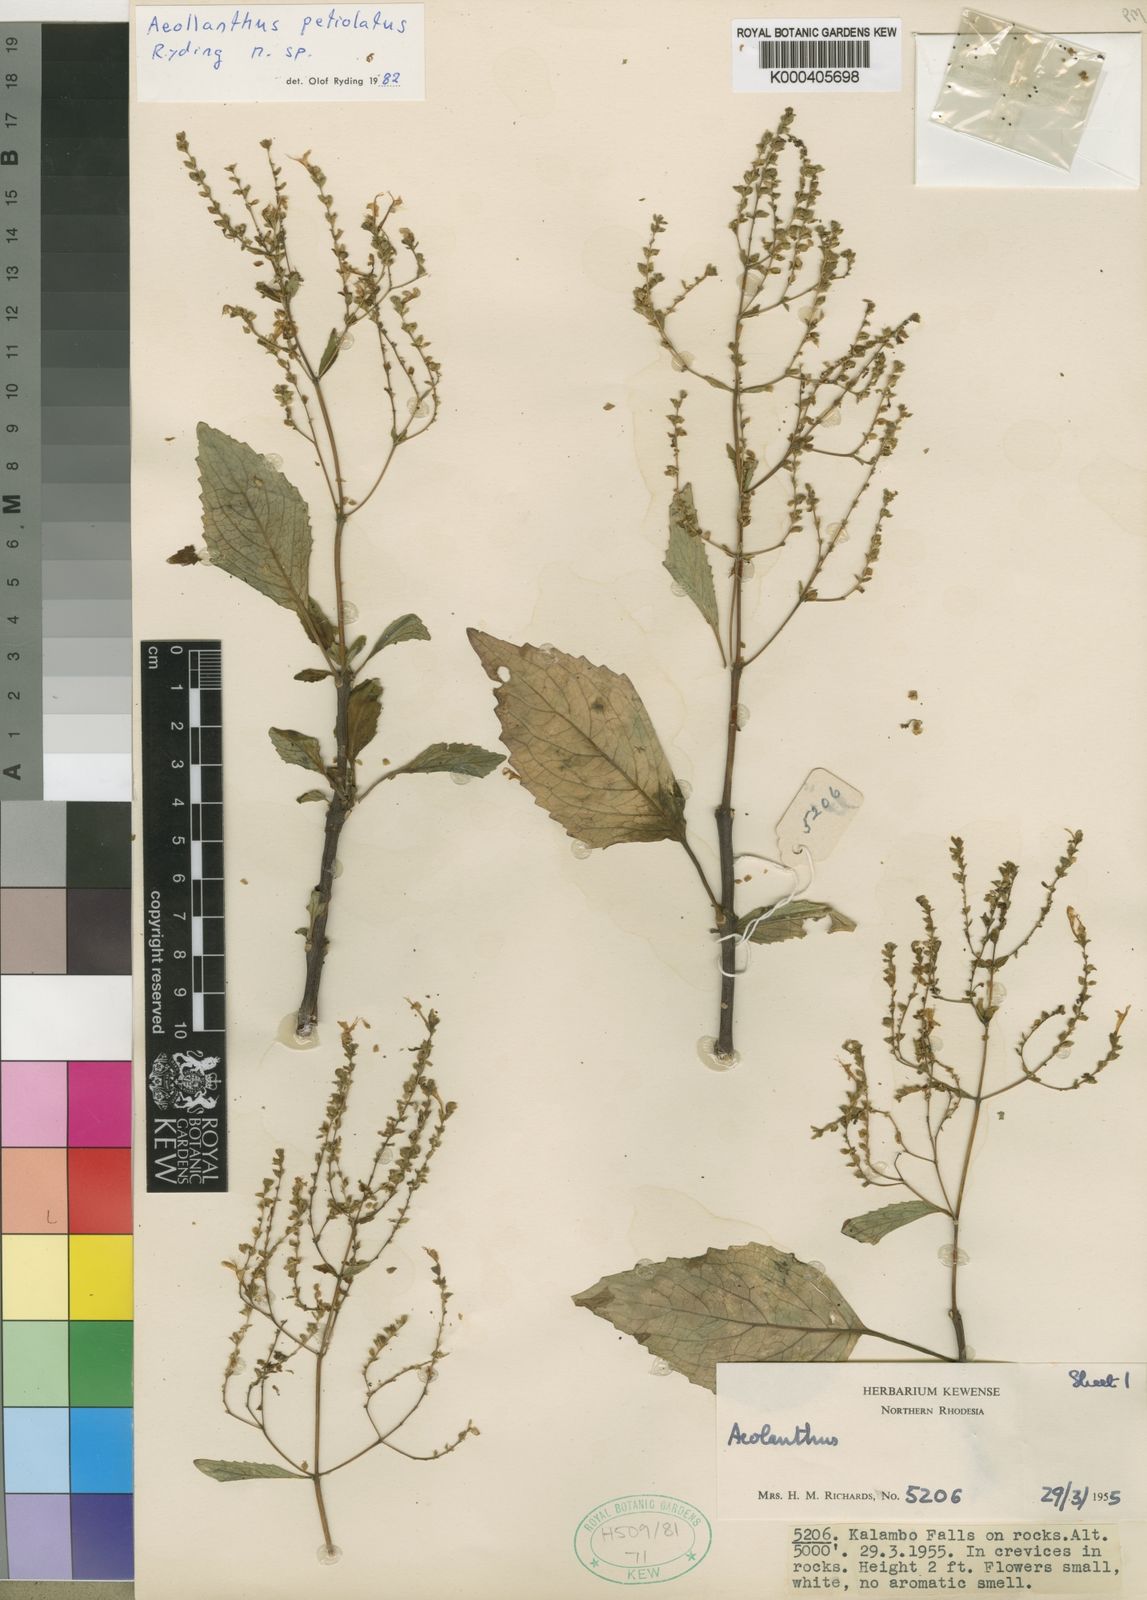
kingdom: Plantae
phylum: Tracheophyta
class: Magnoliopsida
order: Lamiales
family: Lamiaceae
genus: Aeollanthus
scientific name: Aeollanthus petiolatus
